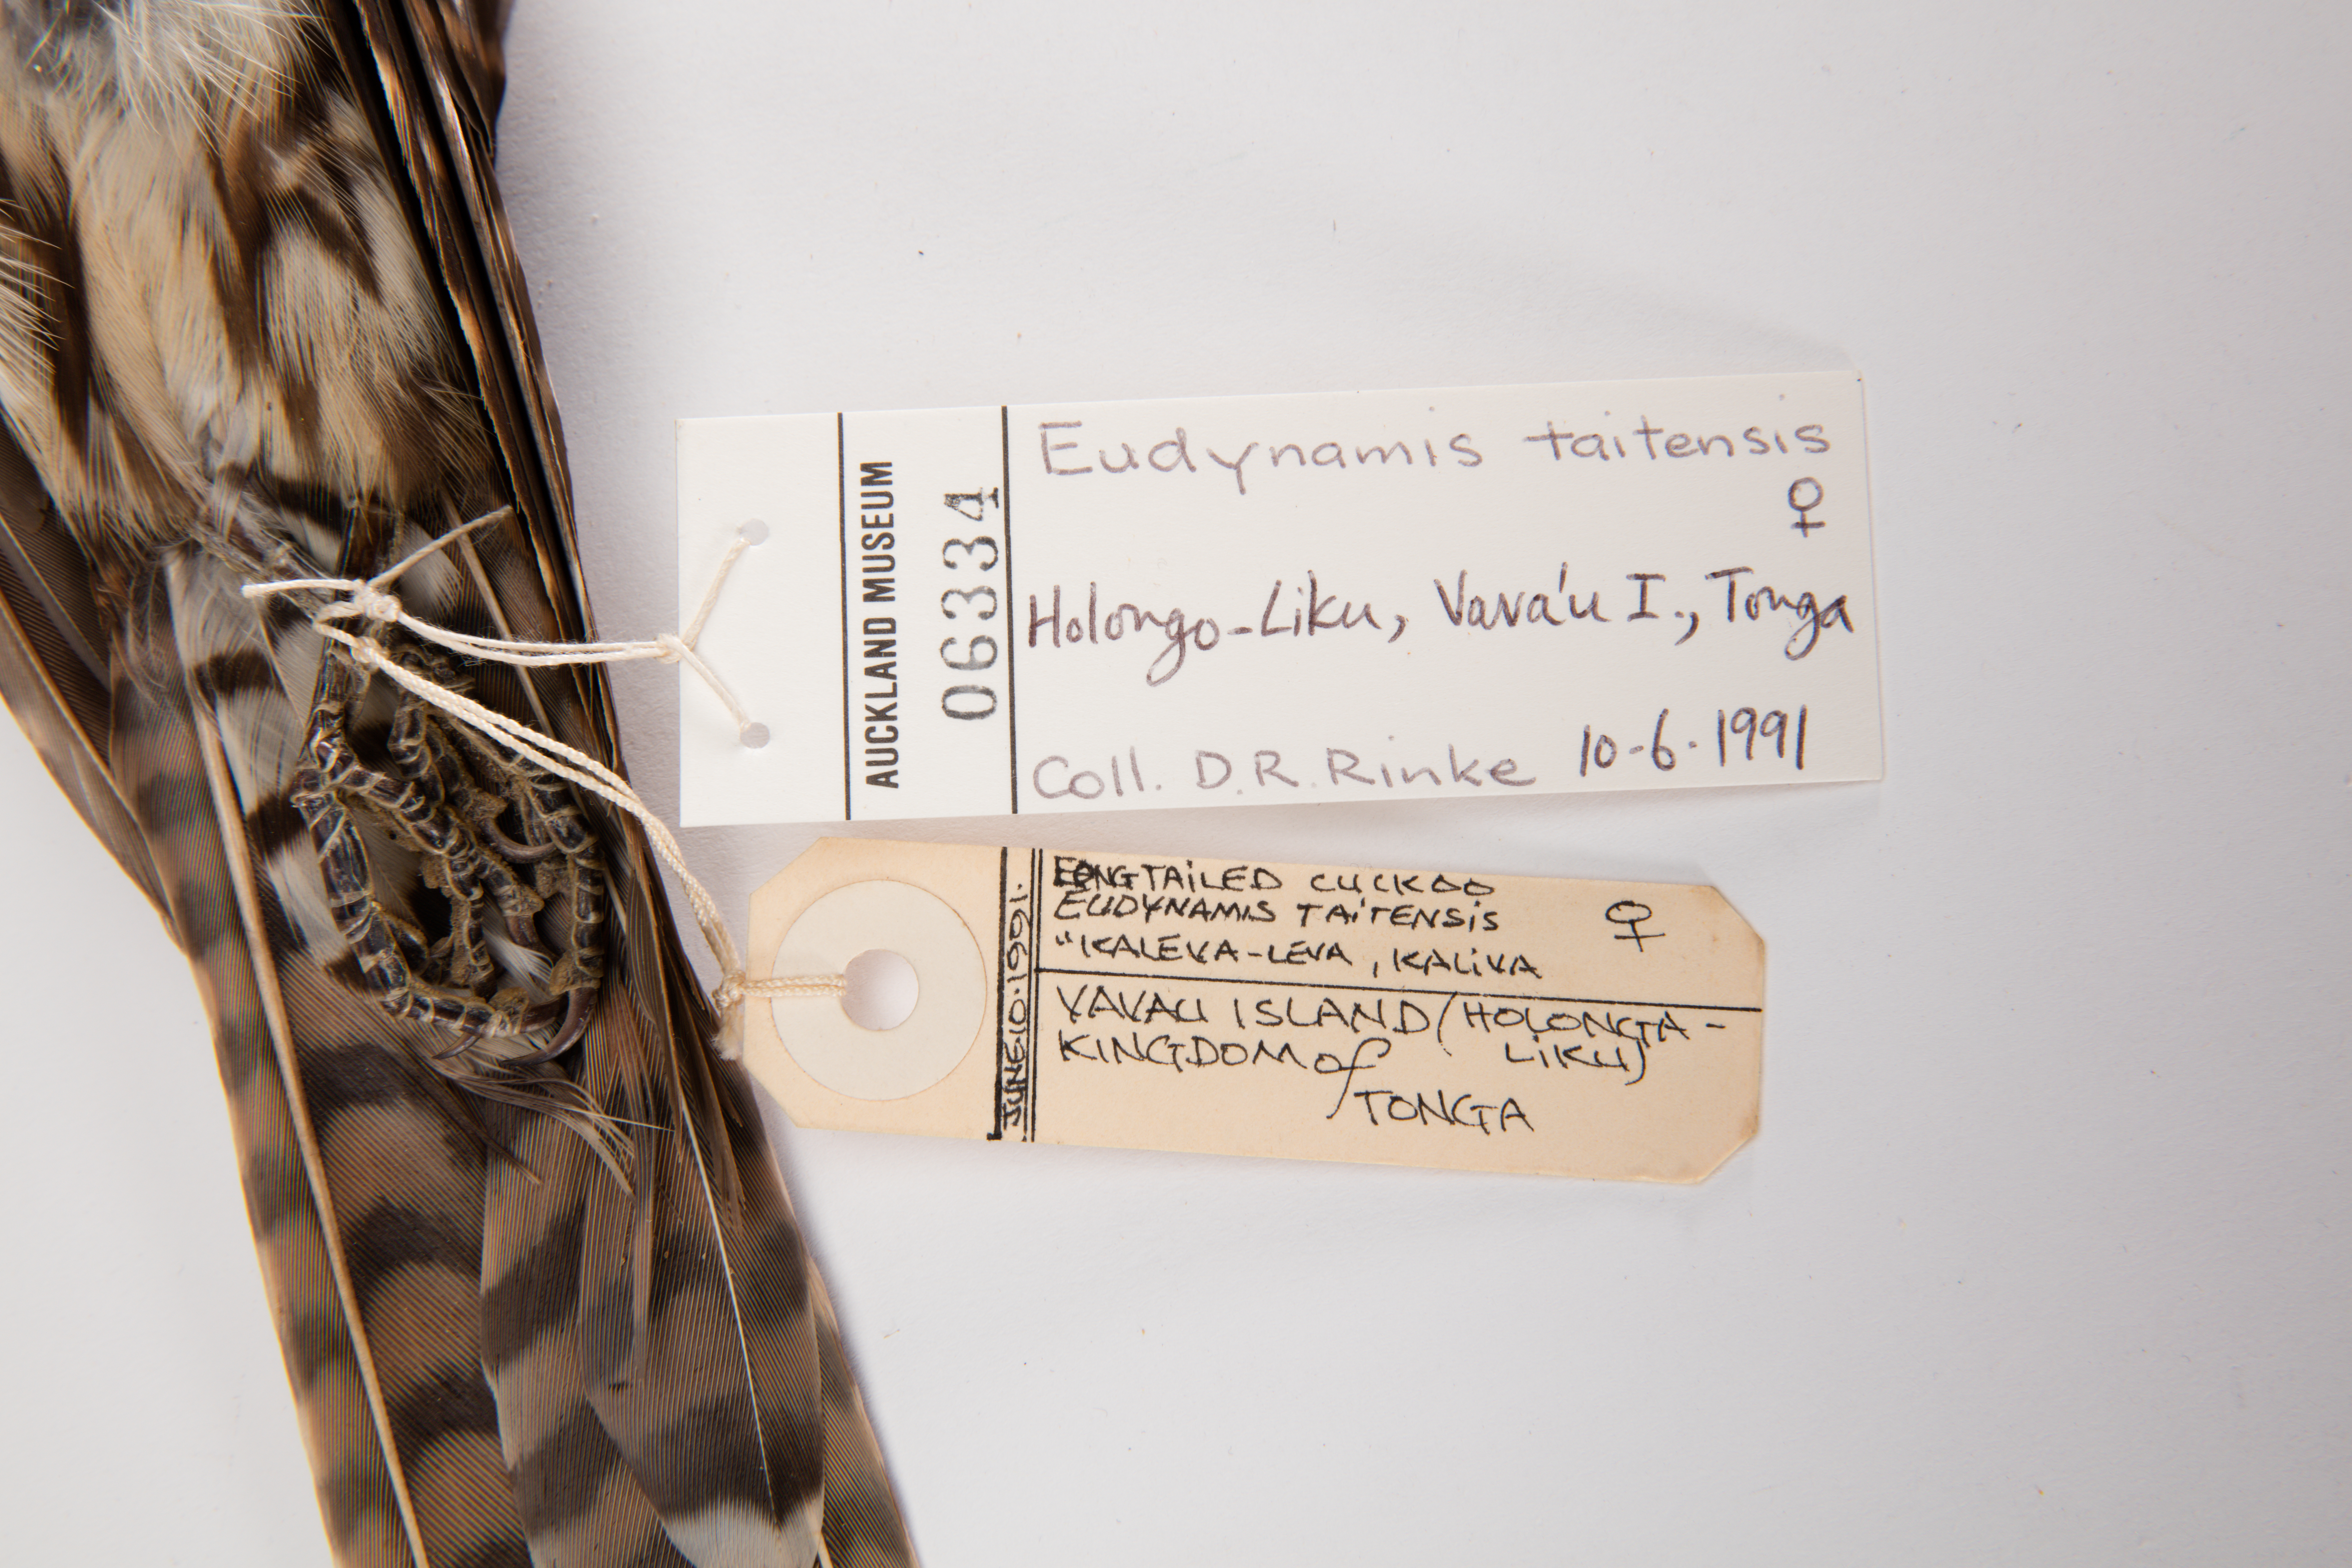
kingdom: Animalia
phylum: Chordata
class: Aves
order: Cuculiformes
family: Cuculidae
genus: Urodynamis
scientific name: Urodynamis taitensis
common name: Long-tailed koel
